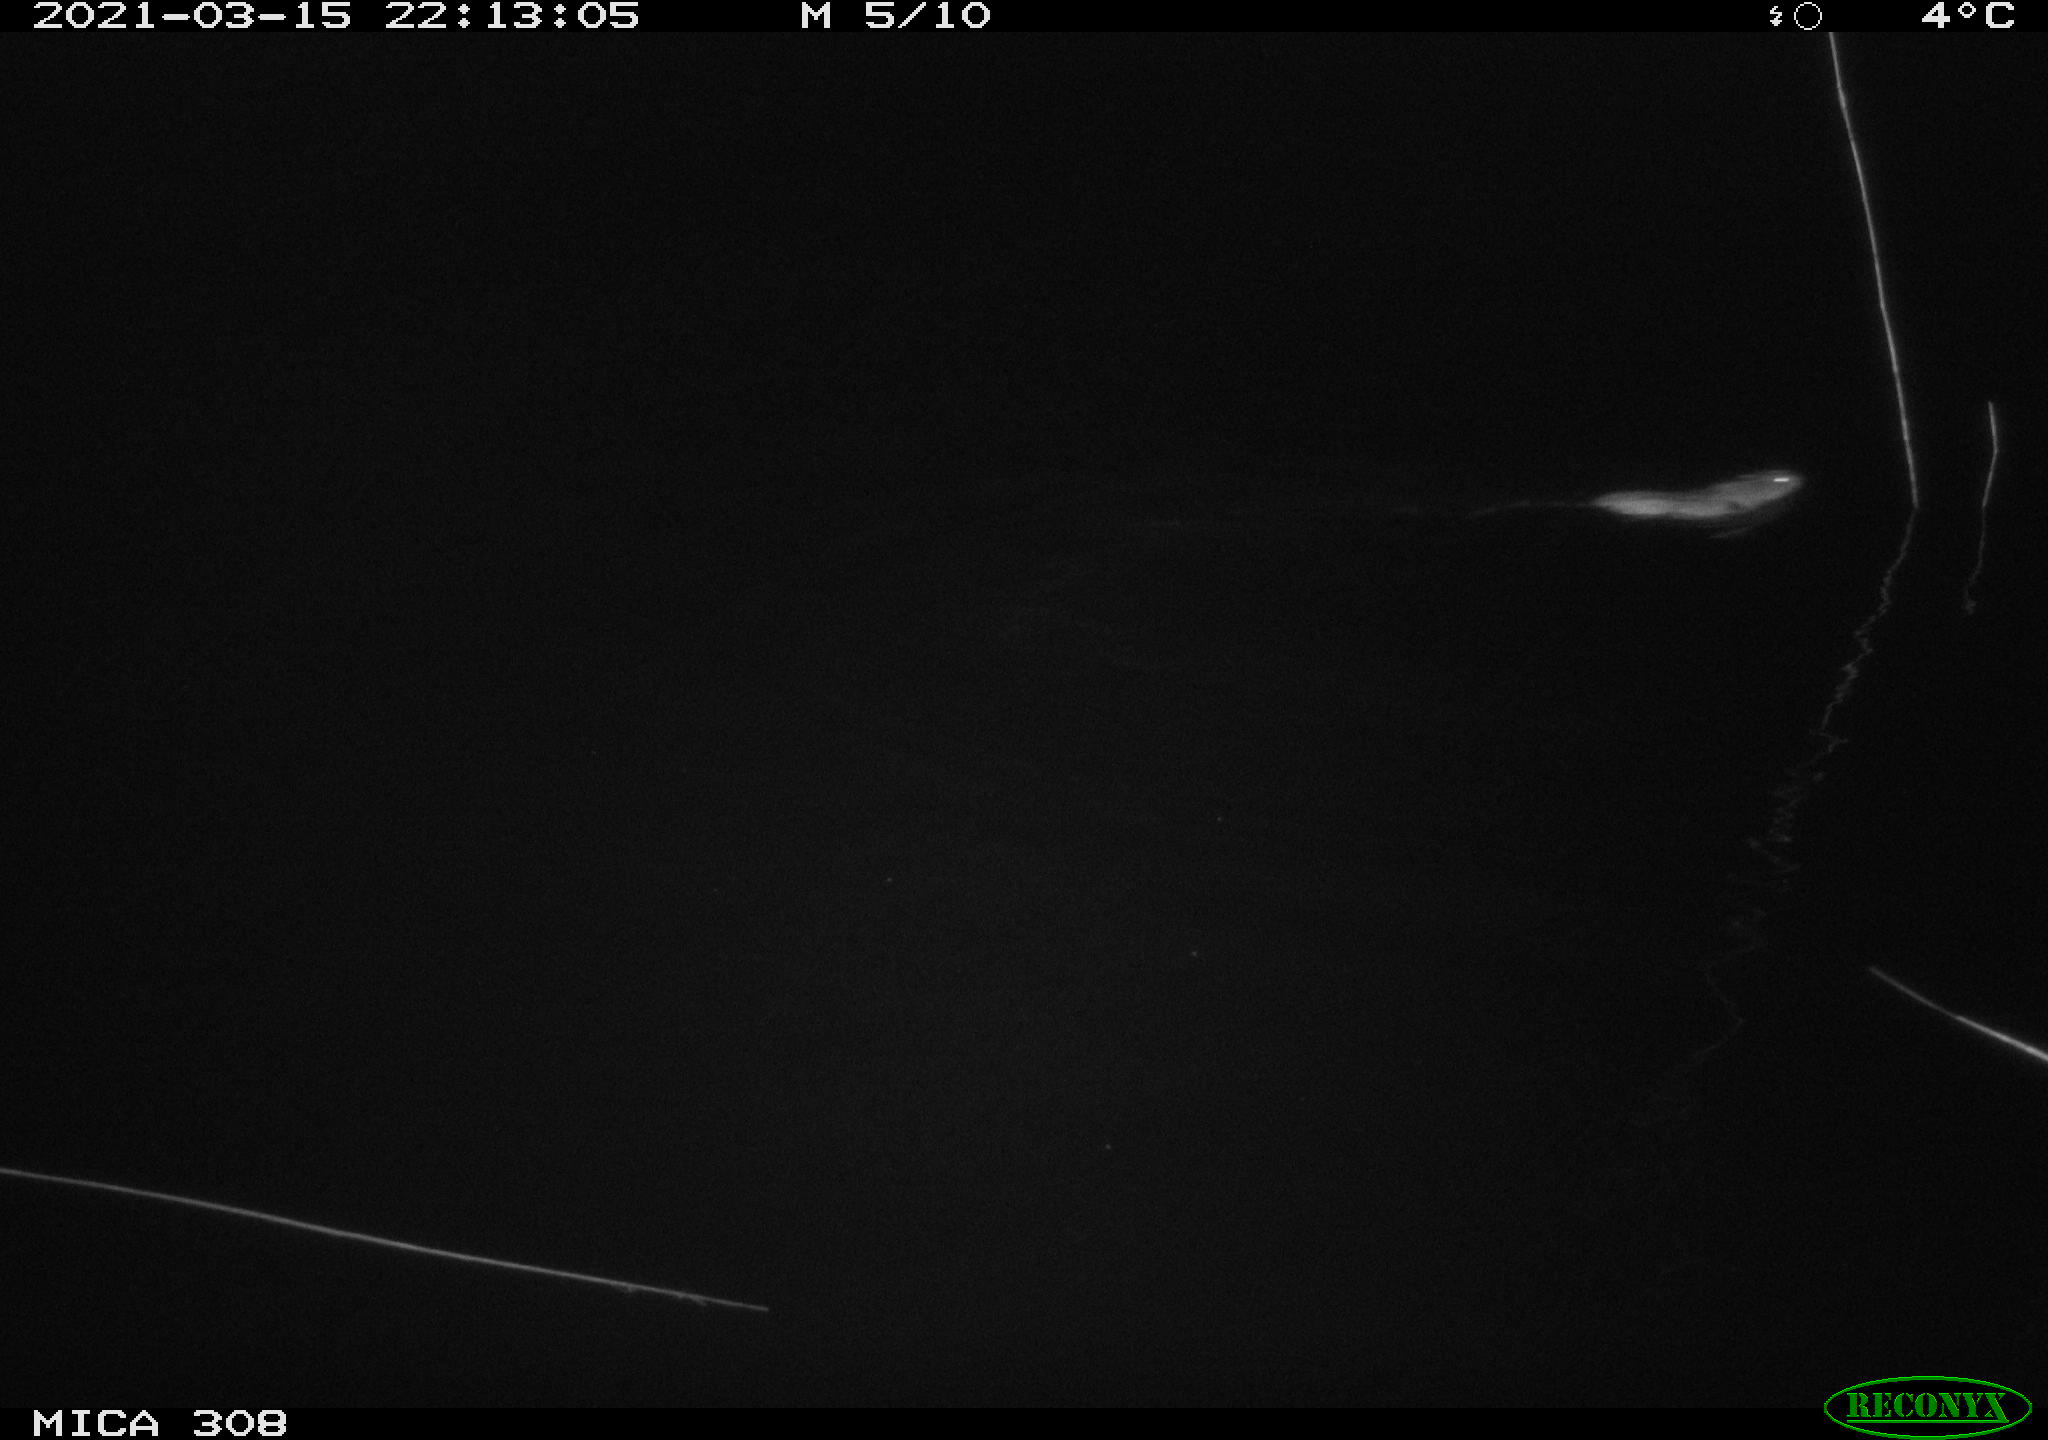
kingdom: Animalia
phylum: Chordata
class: Mammalia
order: Rodentia
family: Muridae
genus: Rattus
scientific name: Rattus norvegicus
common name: Brown rat
